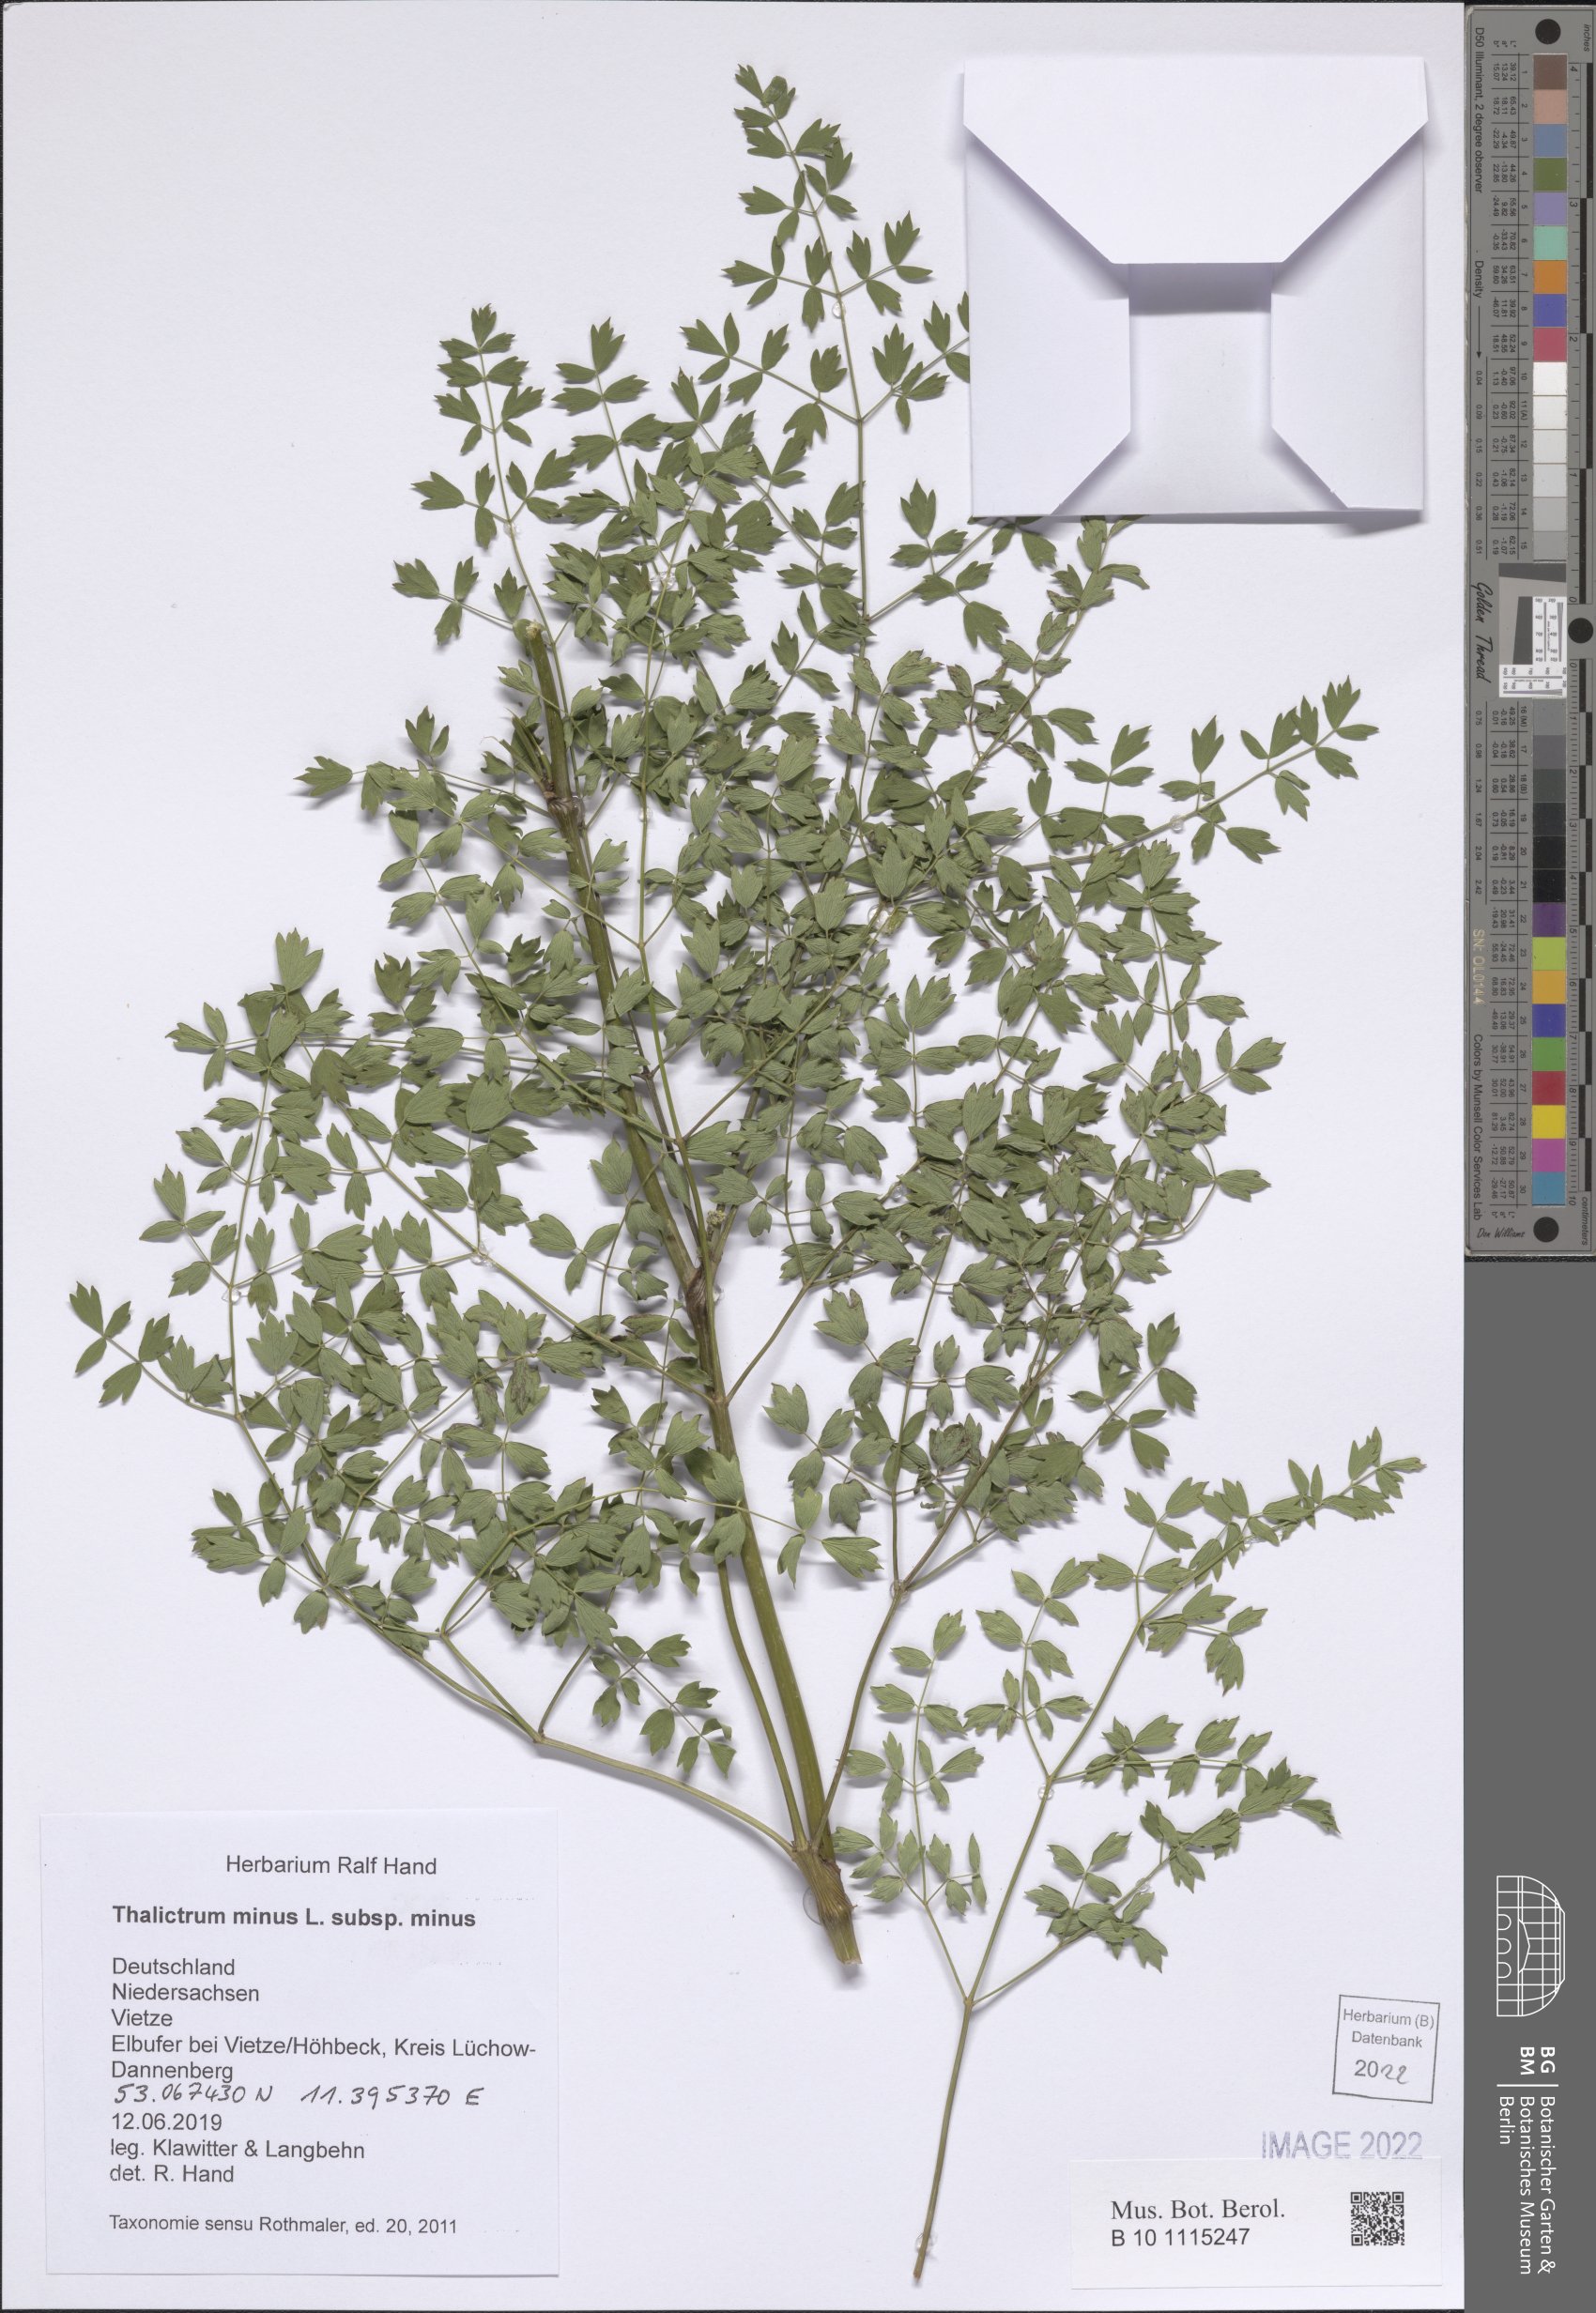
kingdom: Plantae
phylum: Tracheophyta
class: Magnoliopsida
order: Ranunculales
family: Ranunculaceae
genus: Thalictrum
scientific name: Thalictrum minus
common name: Lesser meadow-rue
